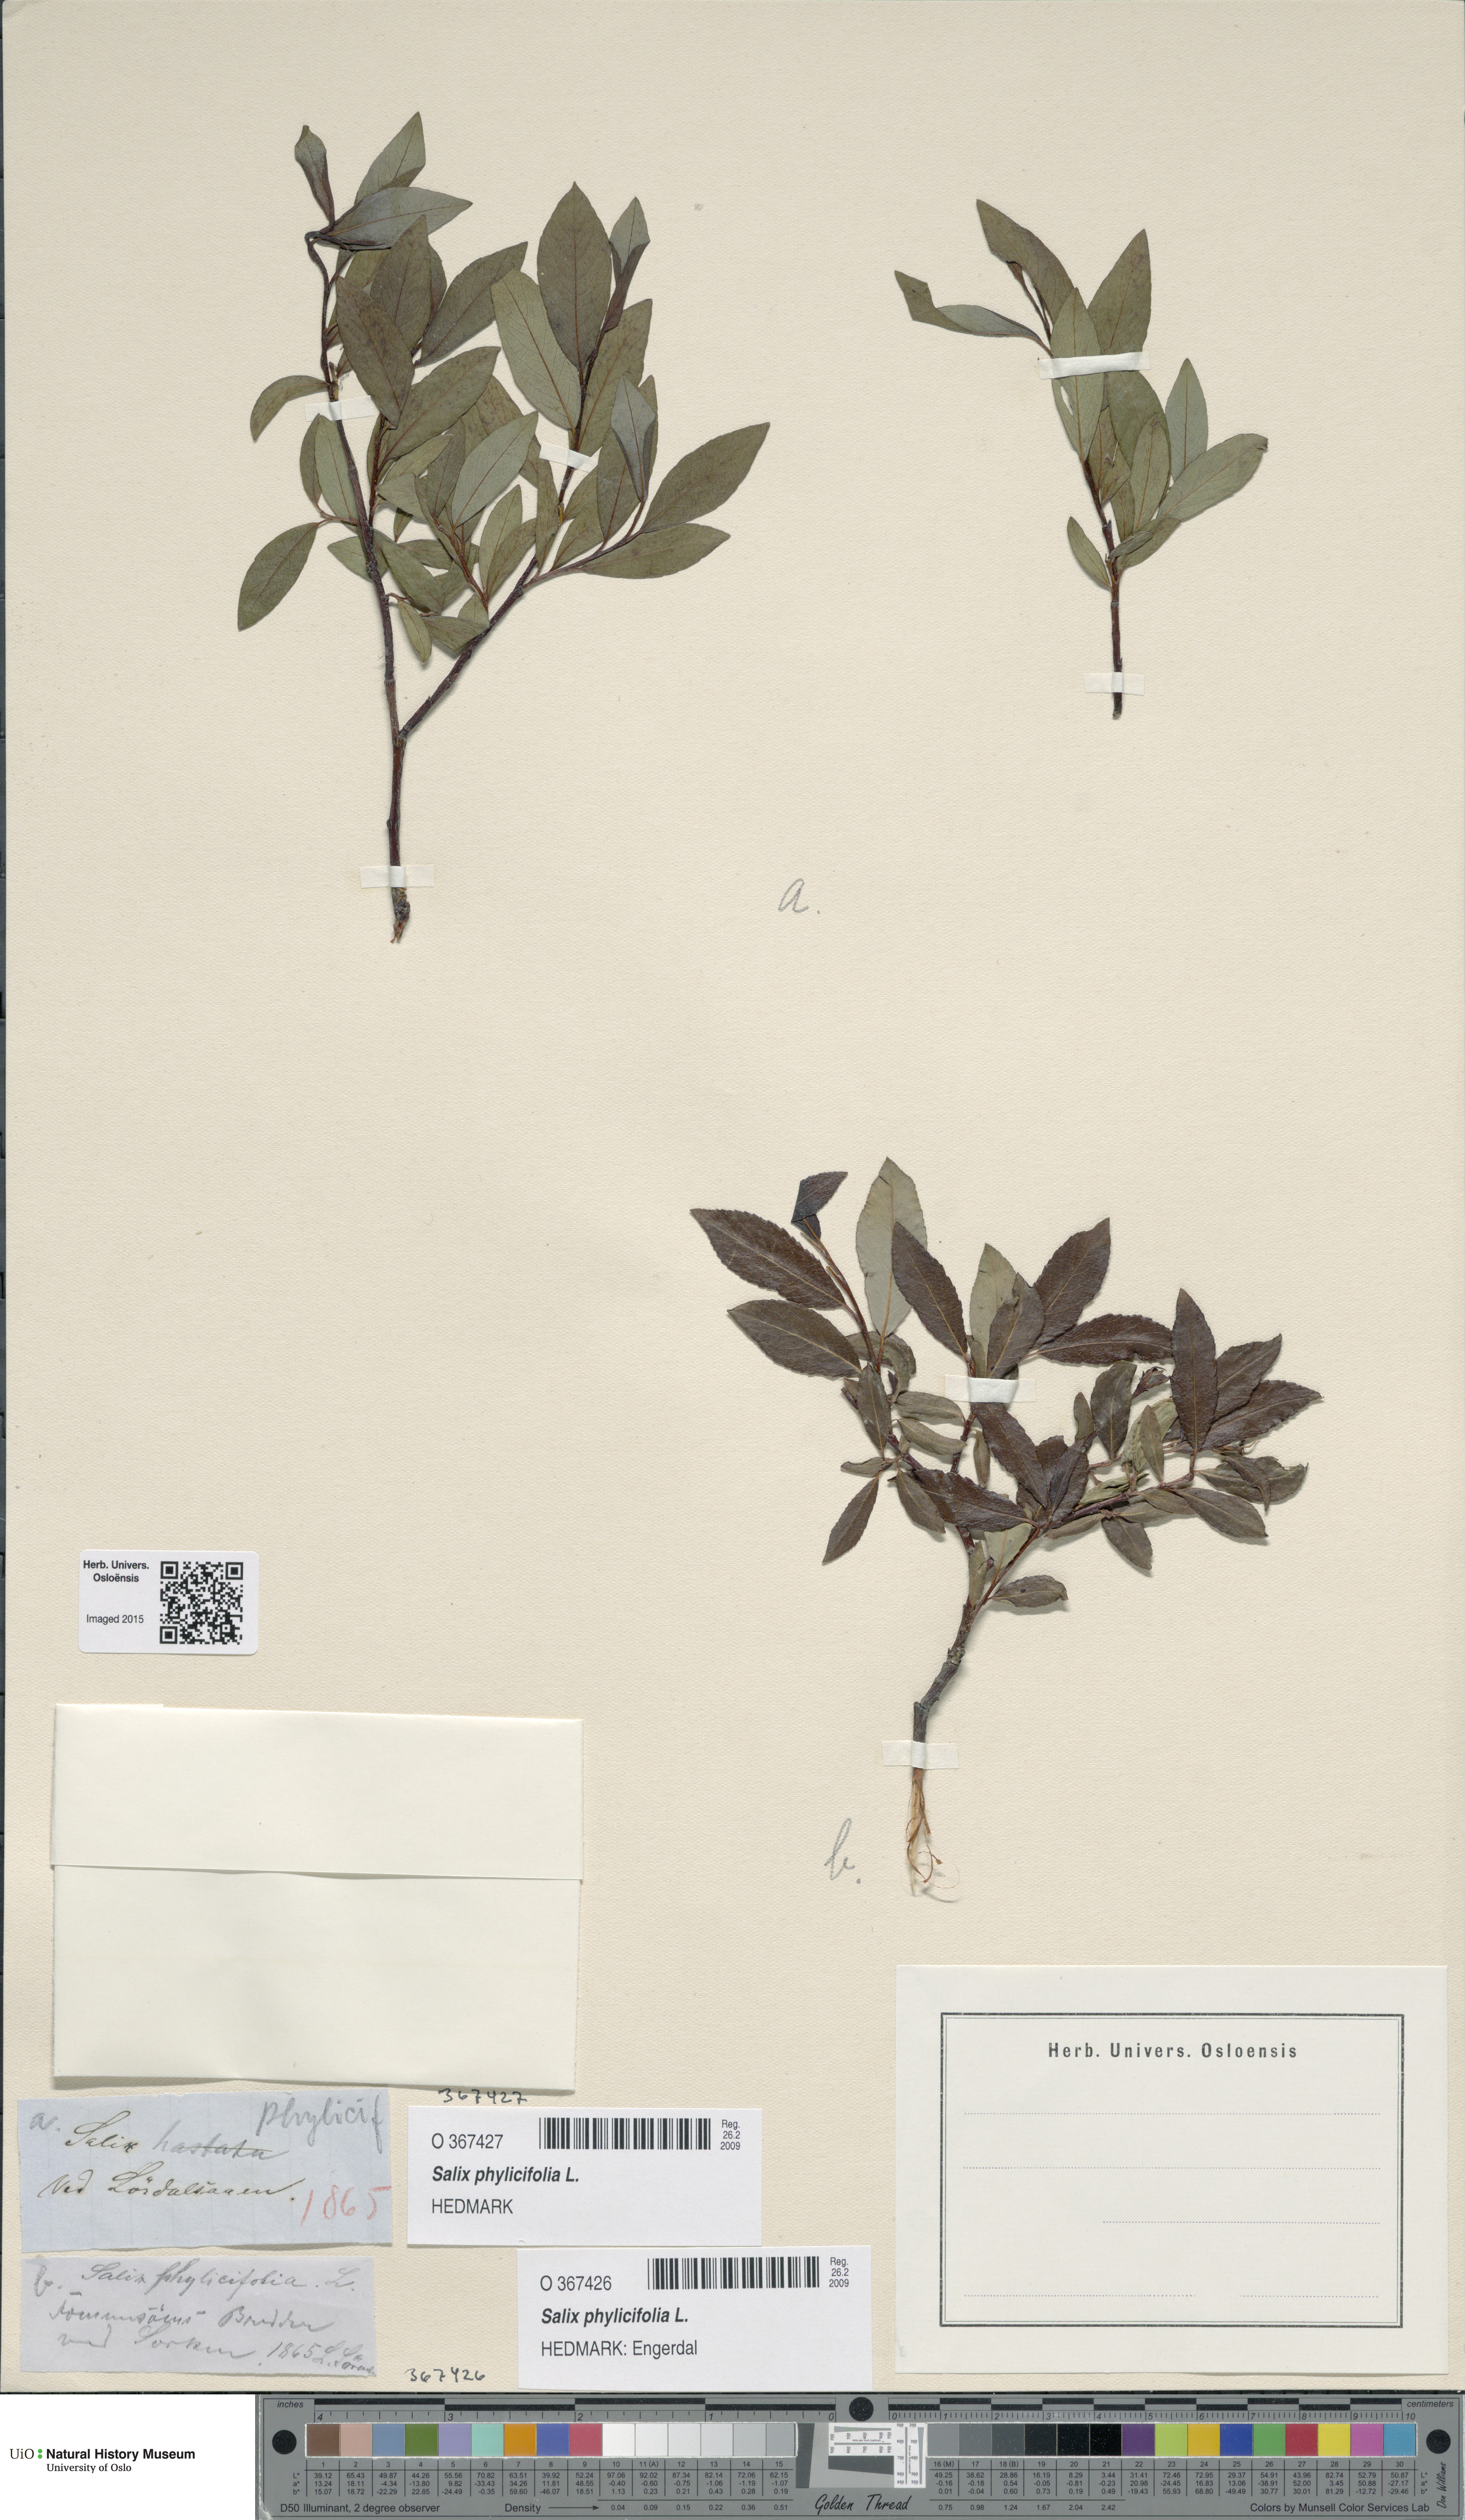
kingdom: Plantae
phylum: Tracheophyta
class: Magnoliopsida
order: Malpighiales
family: Salicaceae
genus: Salix
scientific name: Salix phylicifolia
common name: Tea-leaved willow
